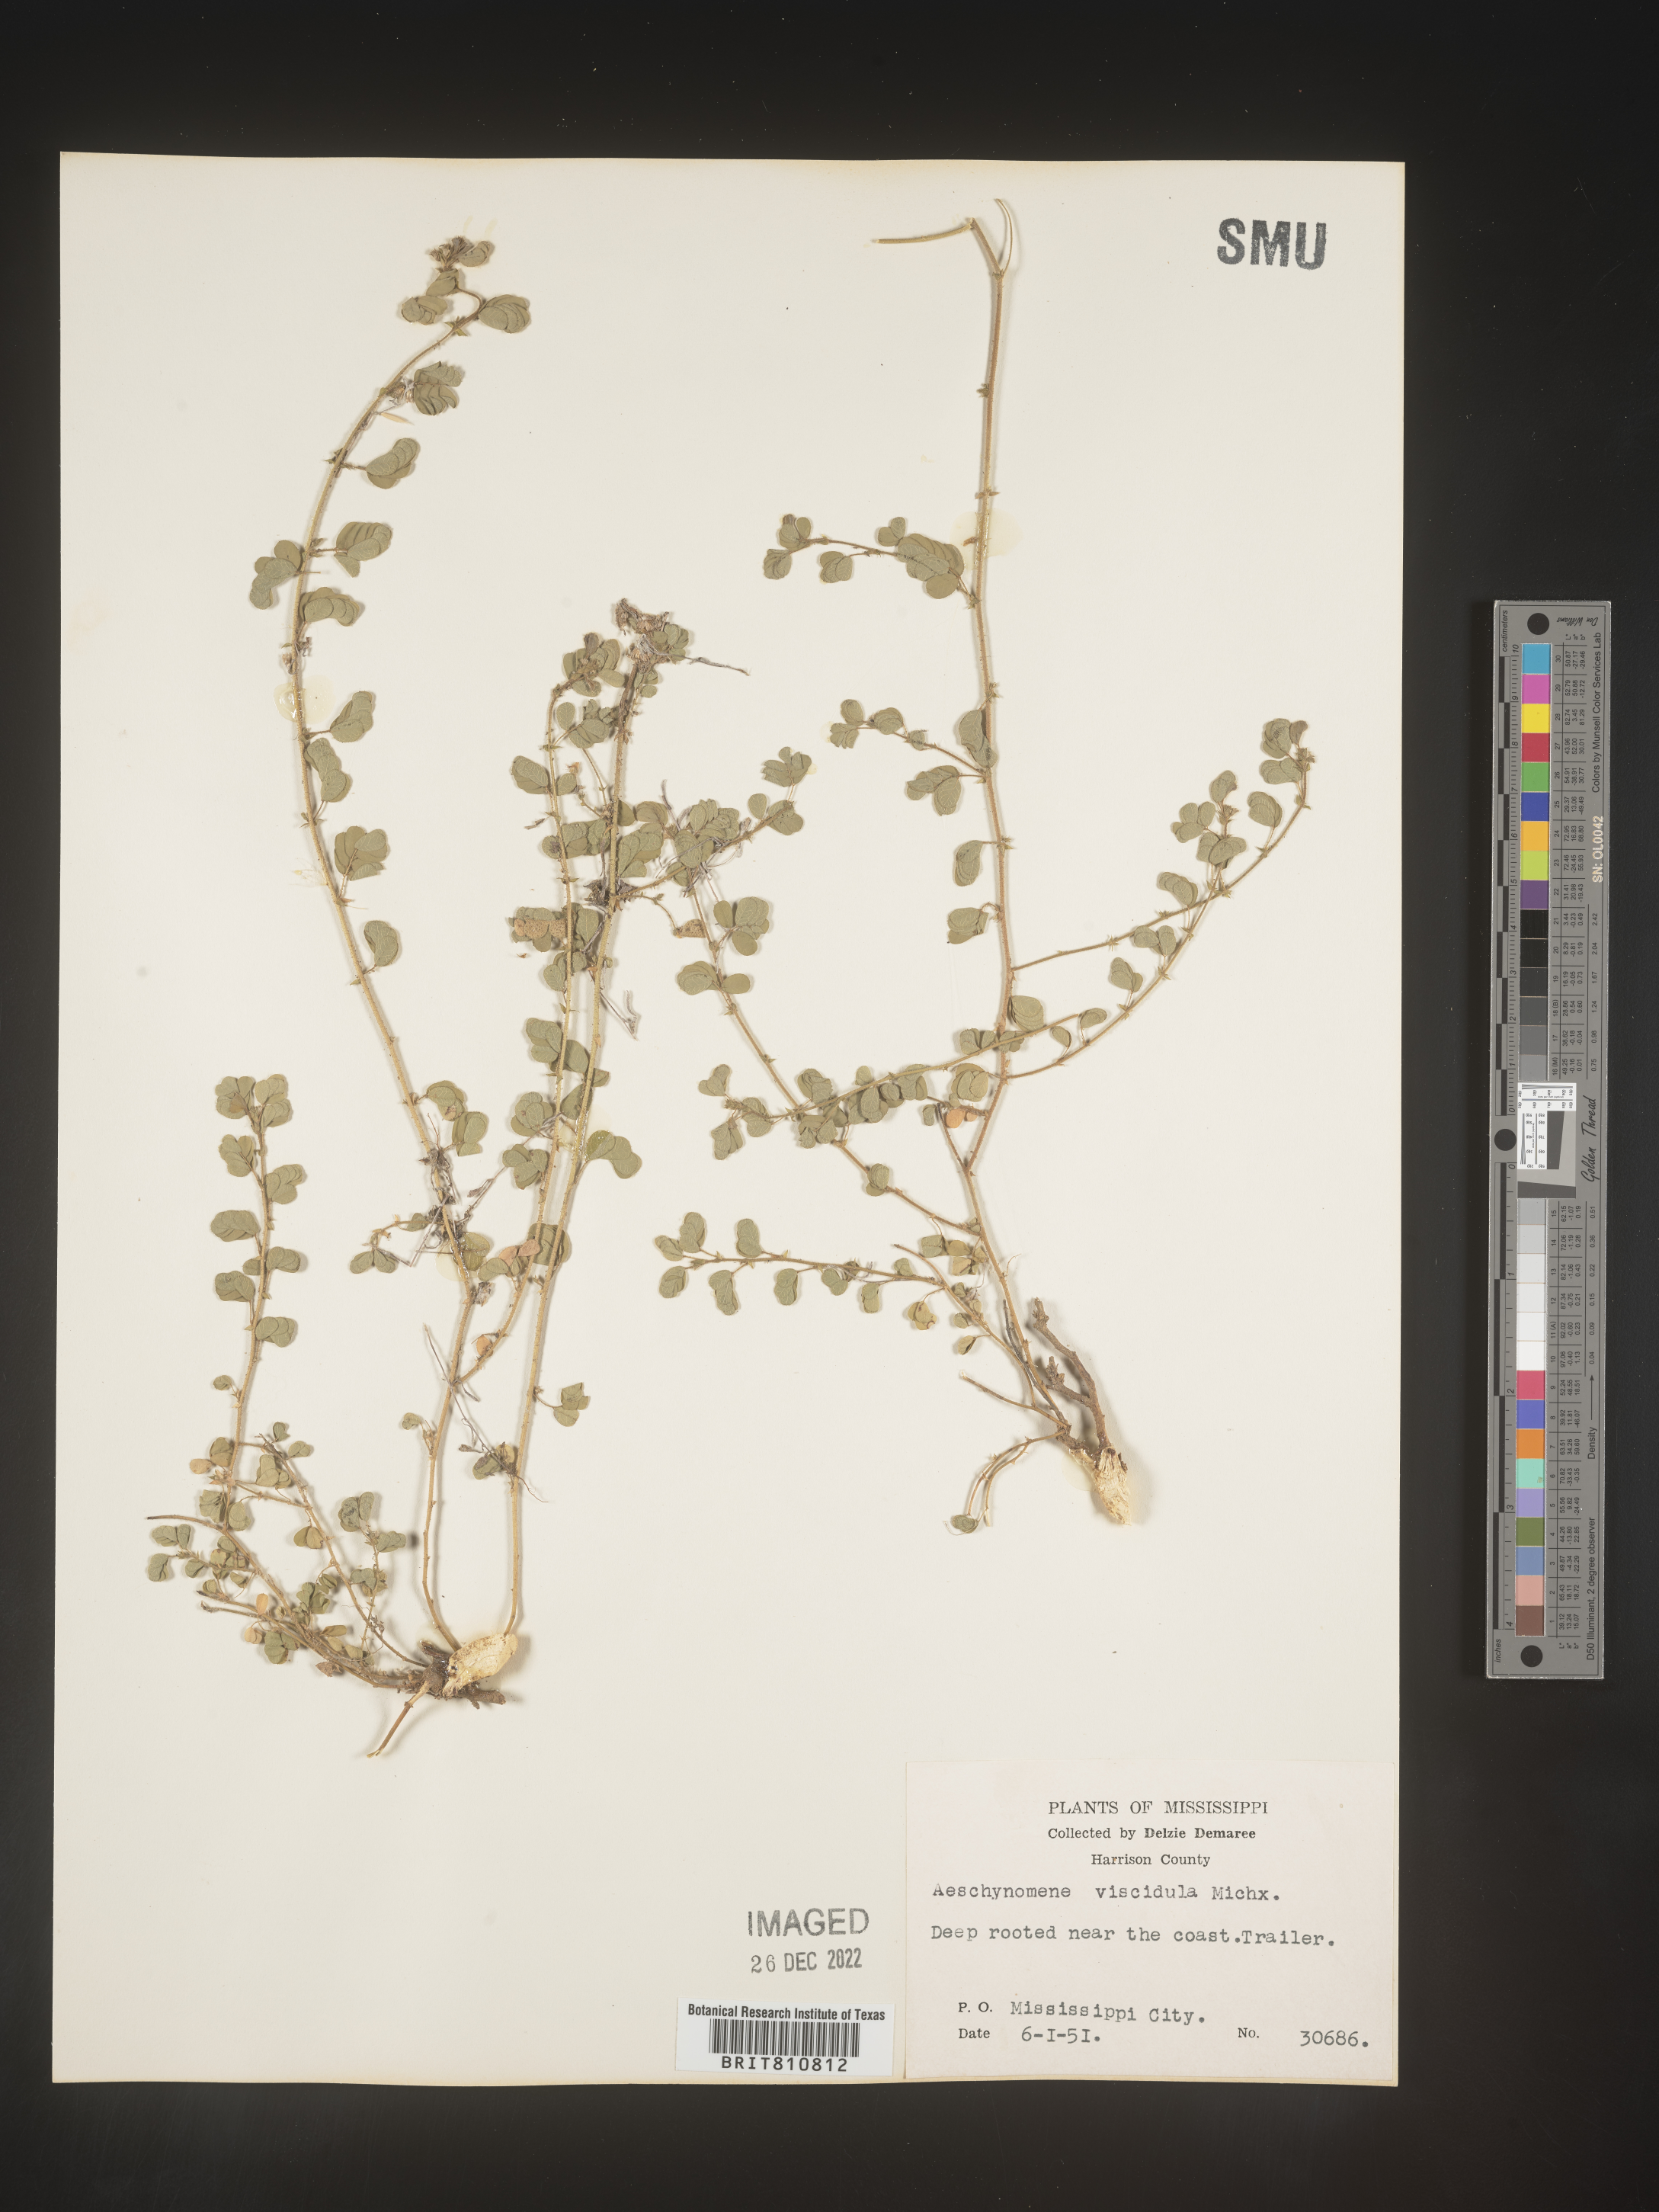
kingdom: Plantae
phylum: Tracheophyta
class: Magnoliopsida
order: Fabales
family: Fabaceae
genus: Aeschynomene
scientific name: Aeschynomene indica
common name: Indian jointvetch
